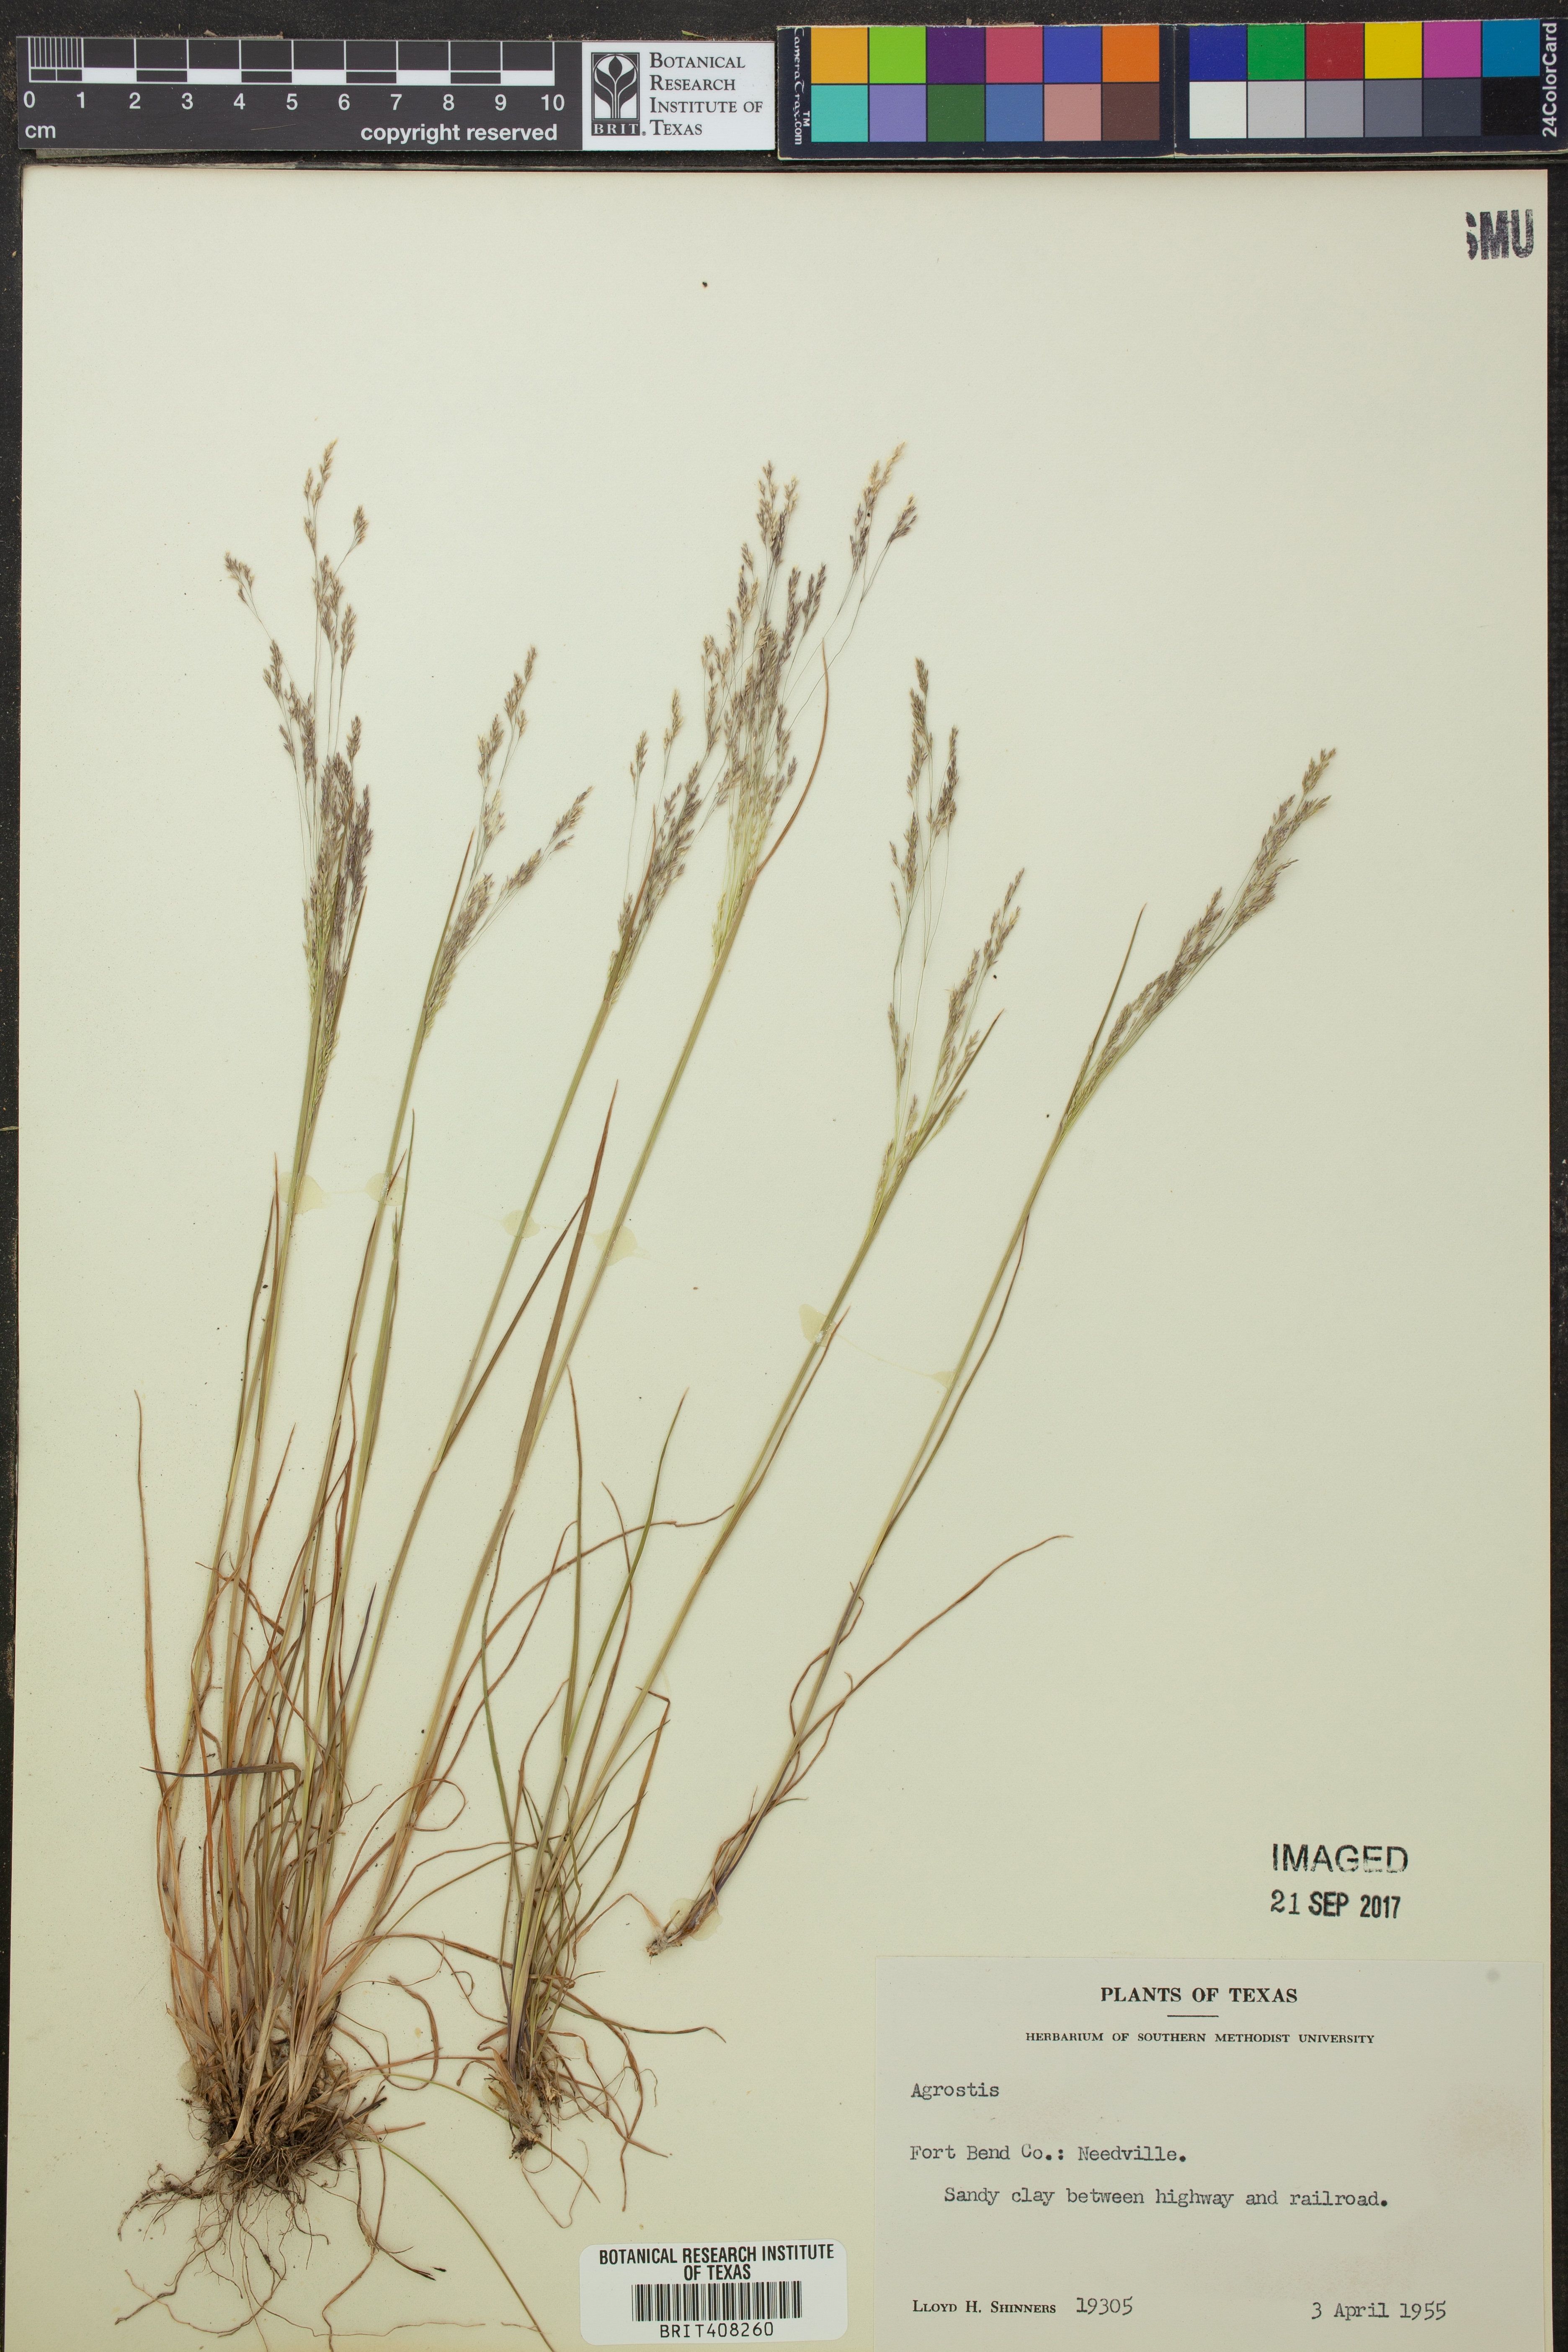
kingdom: Plantae
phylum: Tracheophyta
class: Liliopsida
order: Poales
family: Poaceae
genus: Agrostis
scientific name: Agrostis
